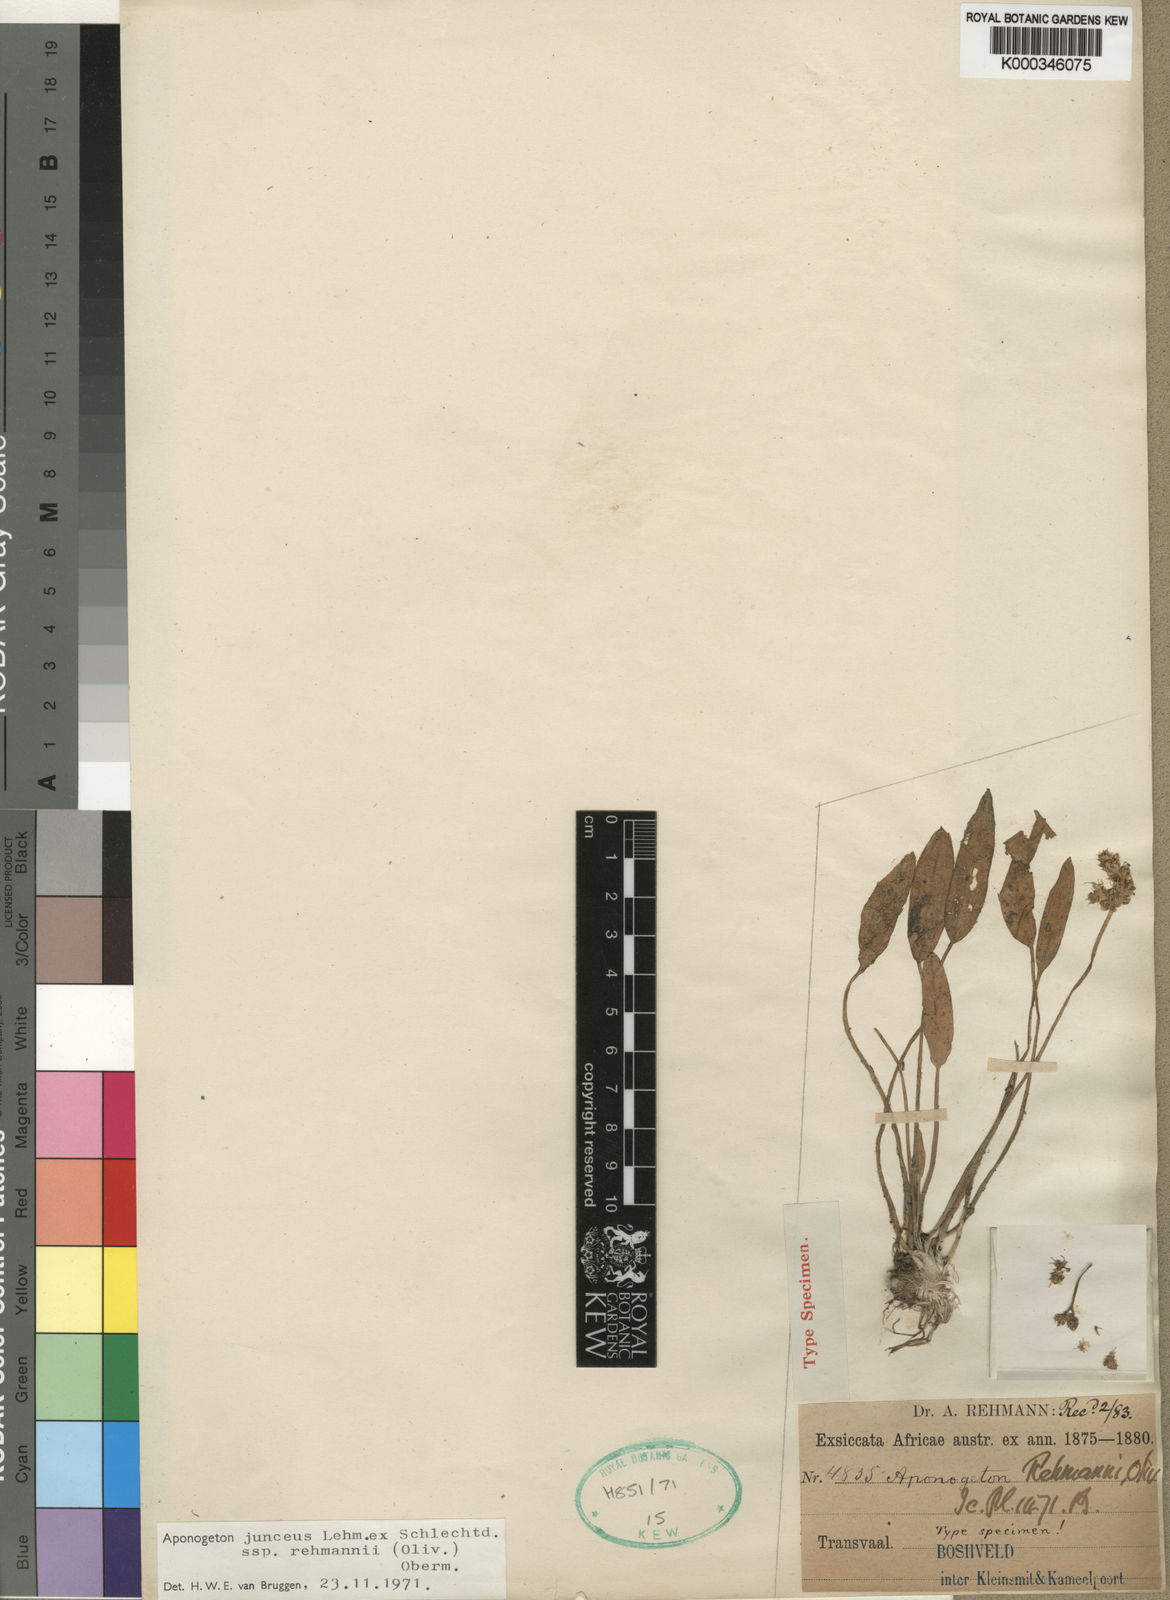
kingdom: Plantae
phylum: Tracheophyta
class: Liliopsida
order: Alismatales
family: Aponogetonaceae
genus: Aponogeton
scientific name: Aponogeton
